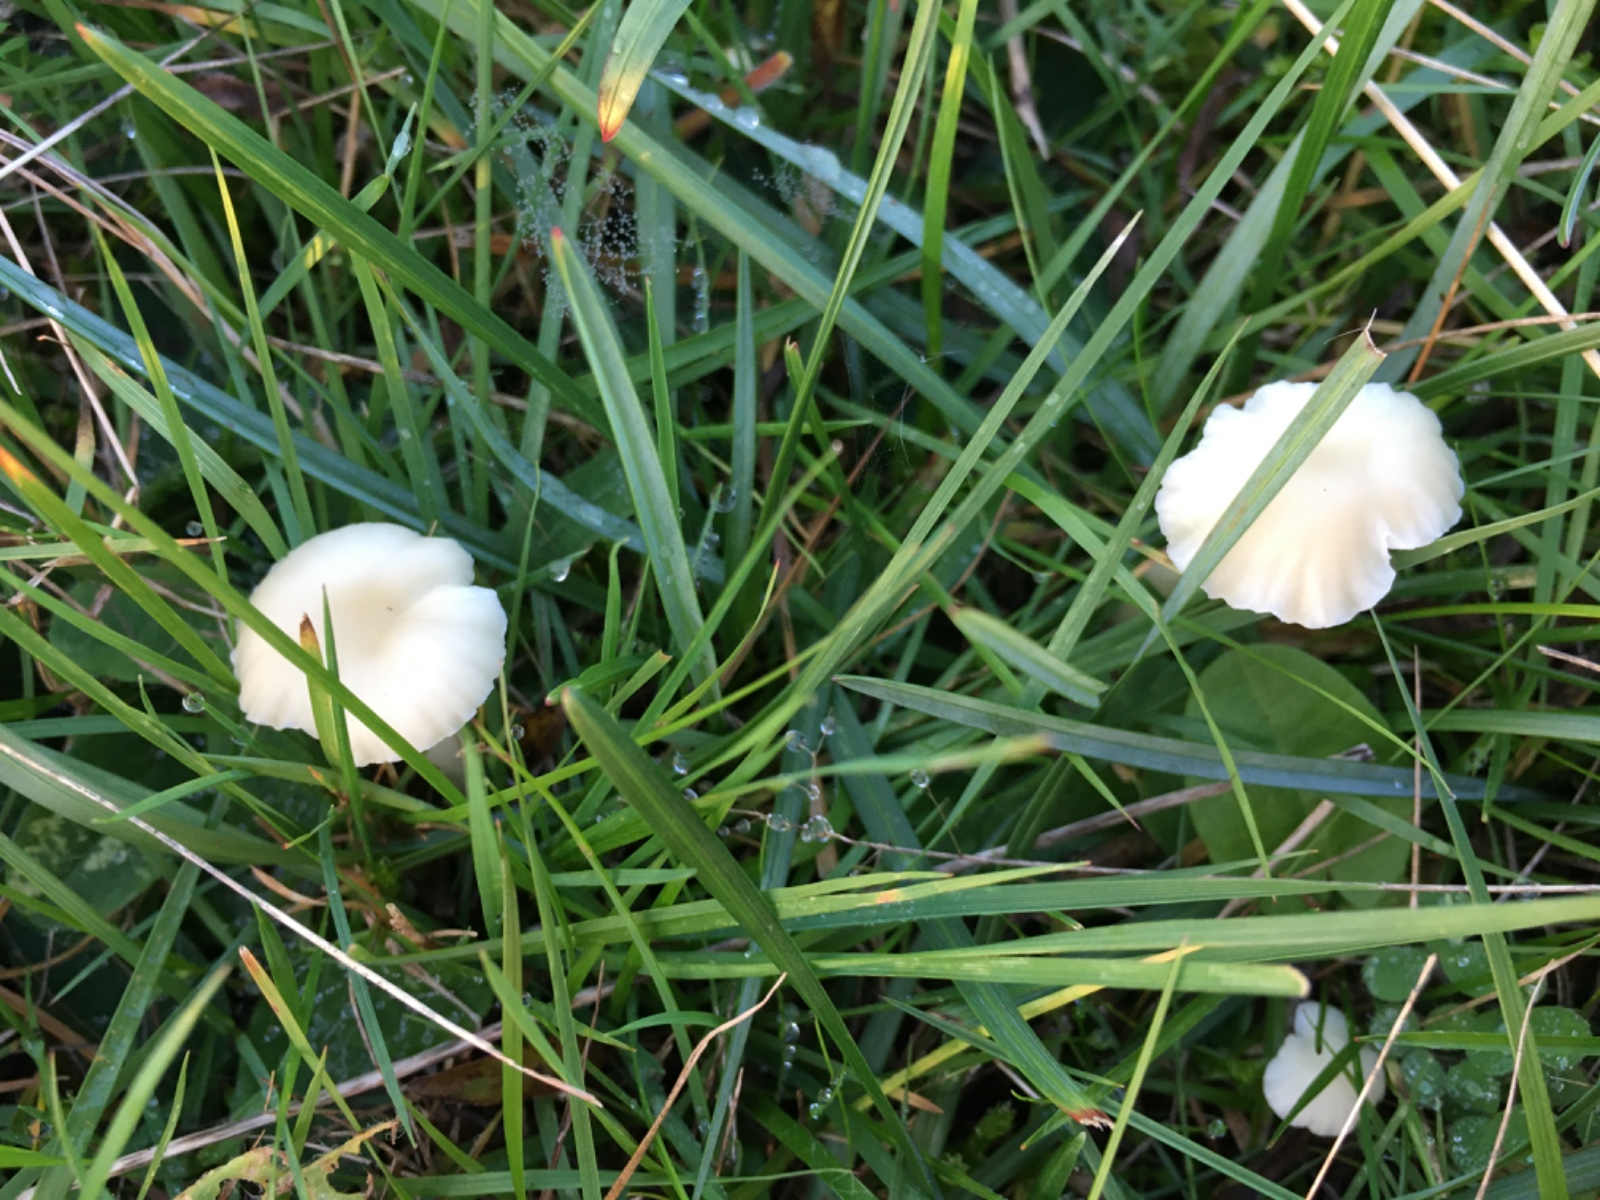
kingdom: Fungi
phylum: Basidiomycota
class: Agaricomycetes
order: Agaricales
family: Hygrophoraceae
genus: Cuphophyllus
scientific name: Cuphophyllus russocoriaceus
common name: ruslæder-vokshat
